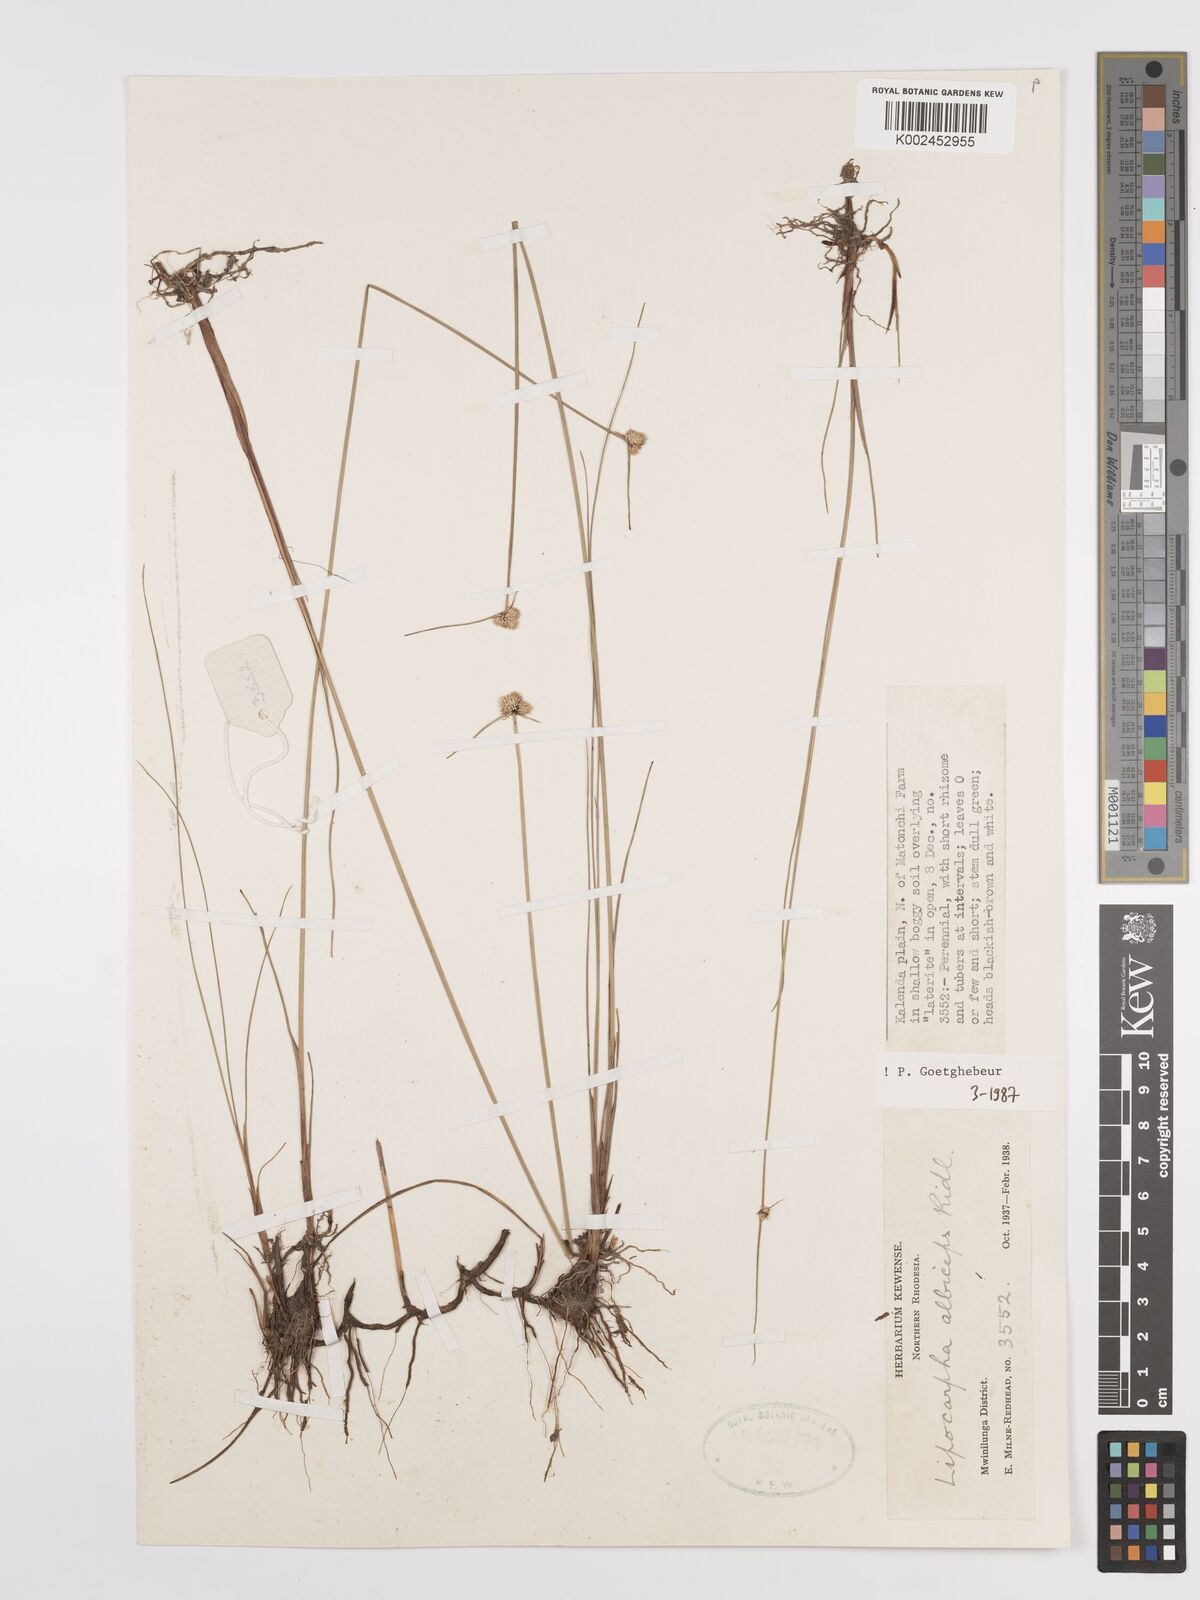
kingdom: Plantae
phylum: Tracheophyta
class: Liliopsida
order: Poales
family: Cyperaceae
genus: Cyperus
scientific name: Cyperus albiceps
